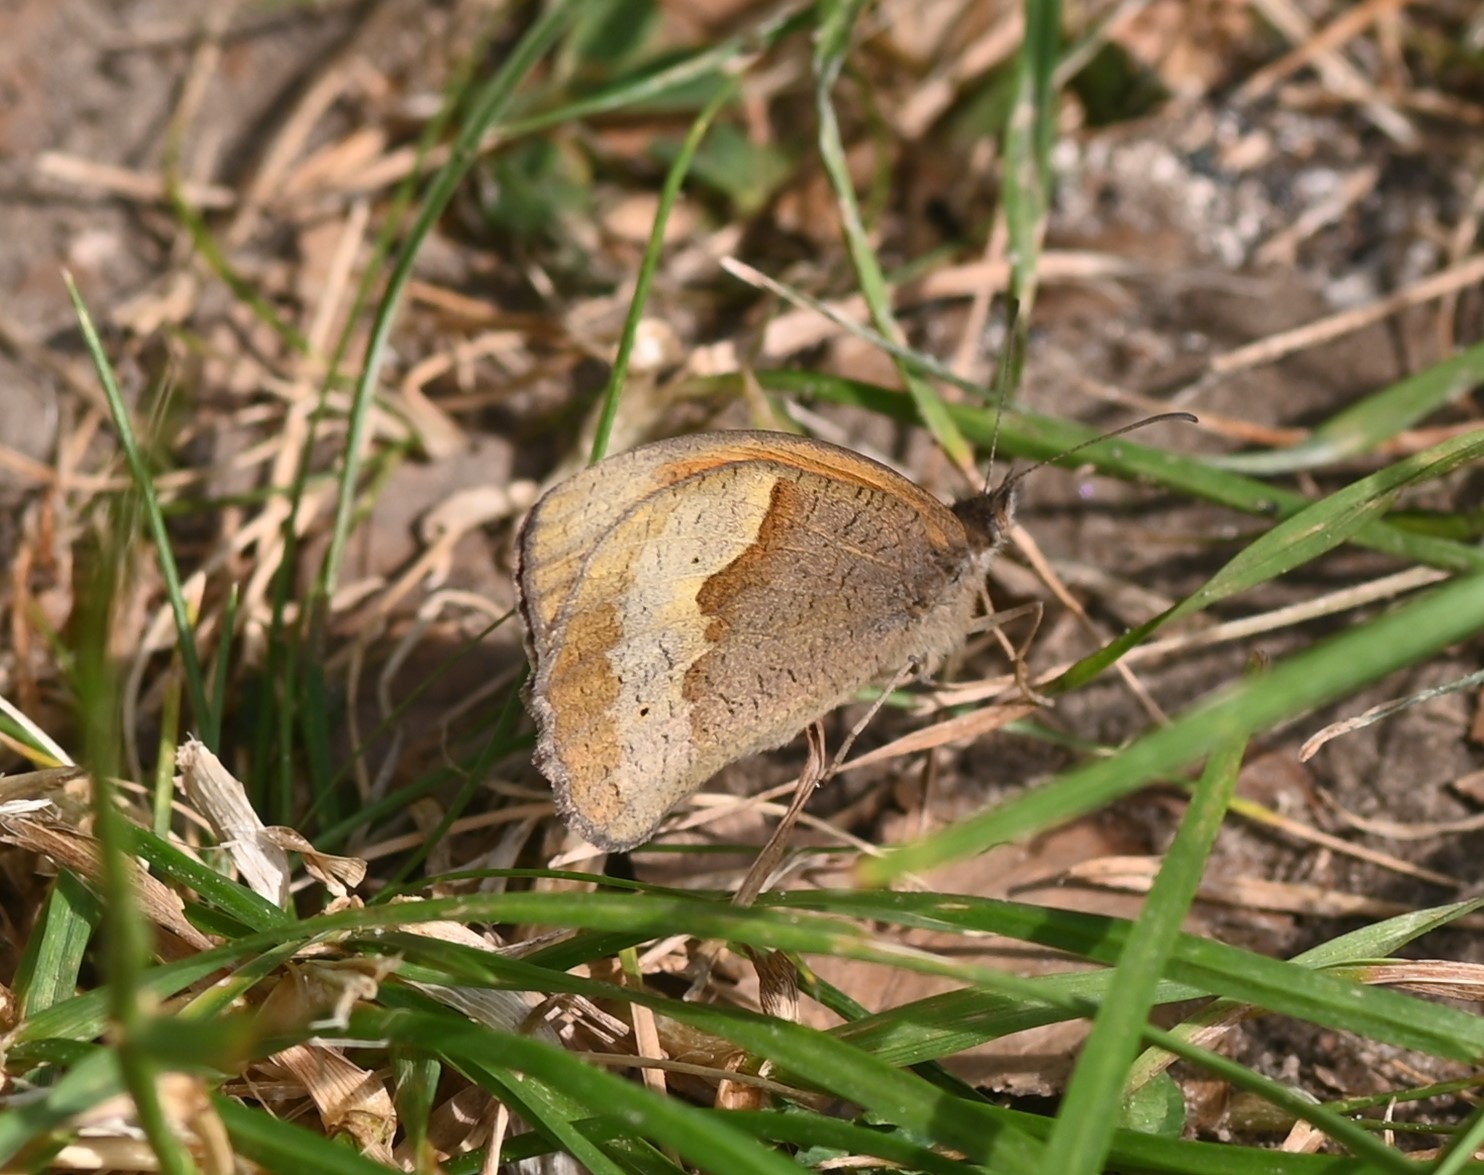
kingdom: Animalia
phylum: Arthropoda
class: Insecta
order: Lepidoptera
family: Nymphalidae
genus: Maniola
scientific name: Maniola jurtina
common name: Græsrandøje
